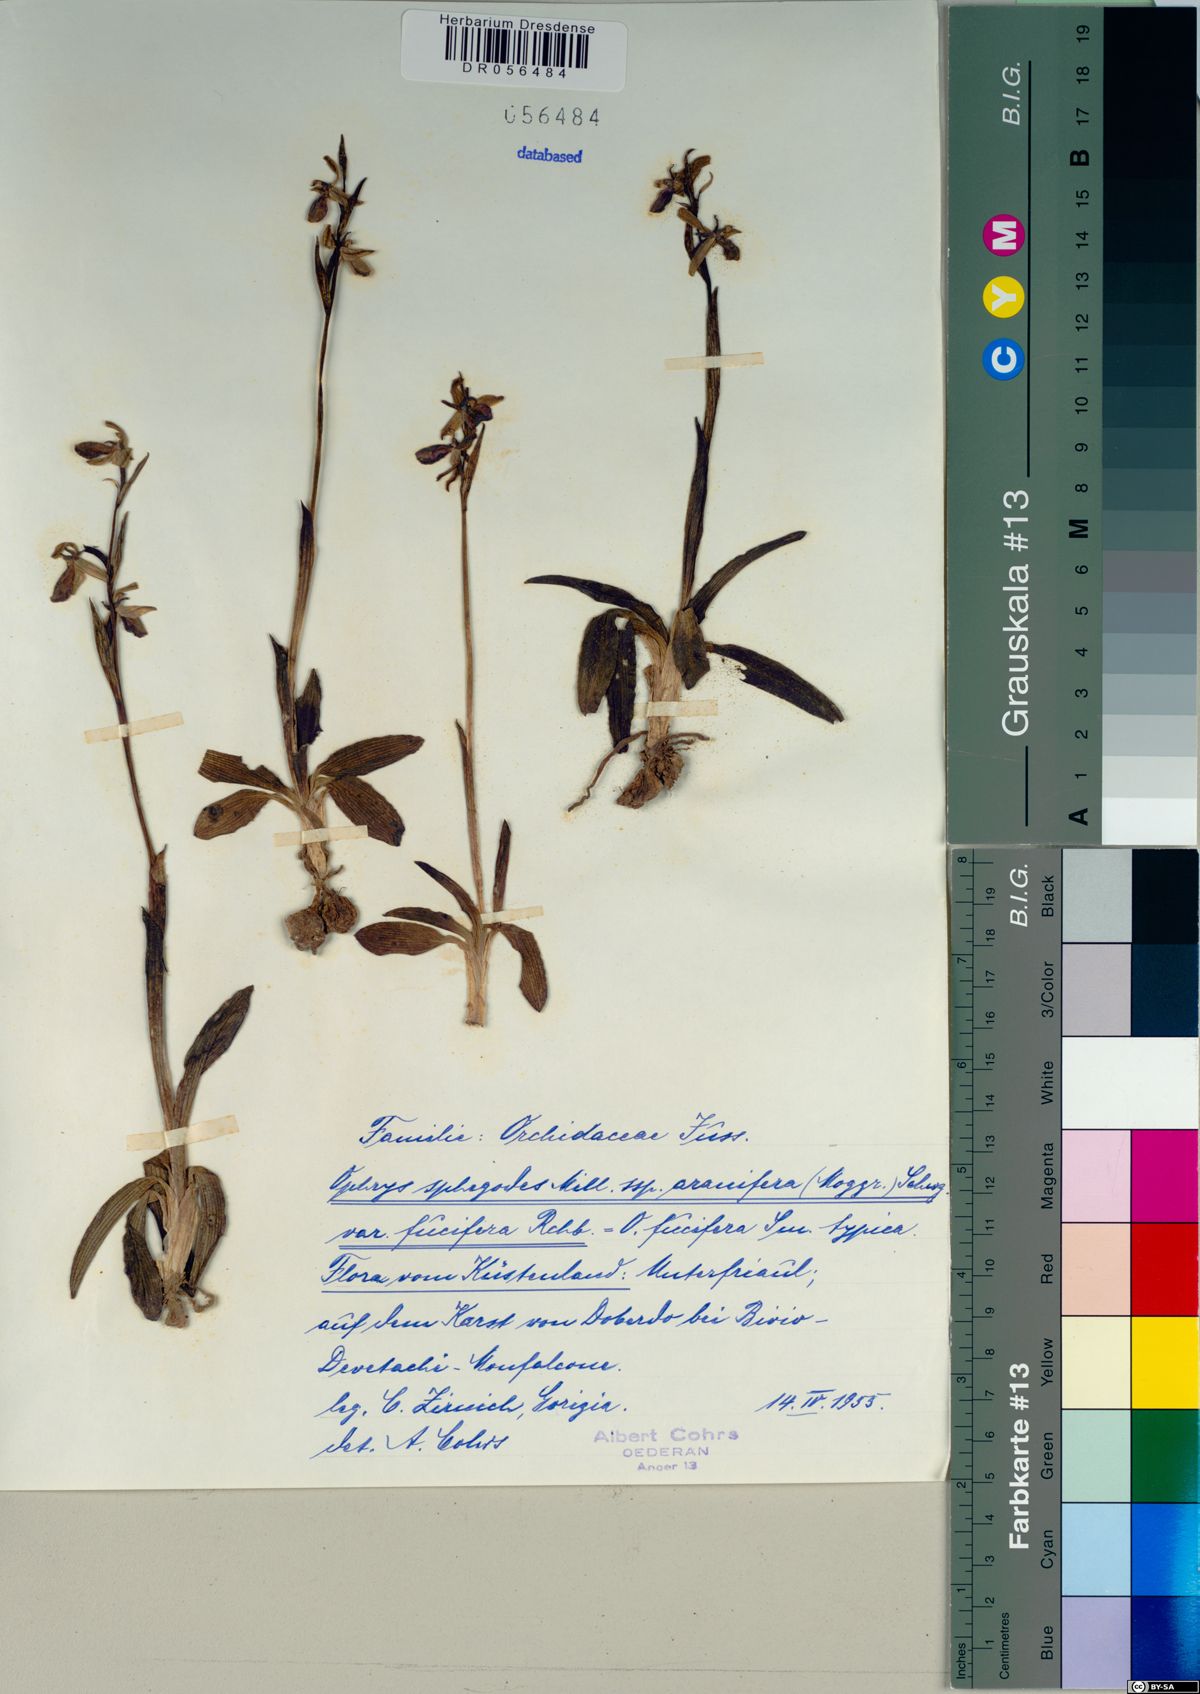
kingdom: Plantae
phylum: Tracheophyta
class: Liliopsida
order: Asparagales
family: Orchidaceae
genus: Ophrys
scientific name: Ophrys sphegodes
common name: Early spider-orchid
